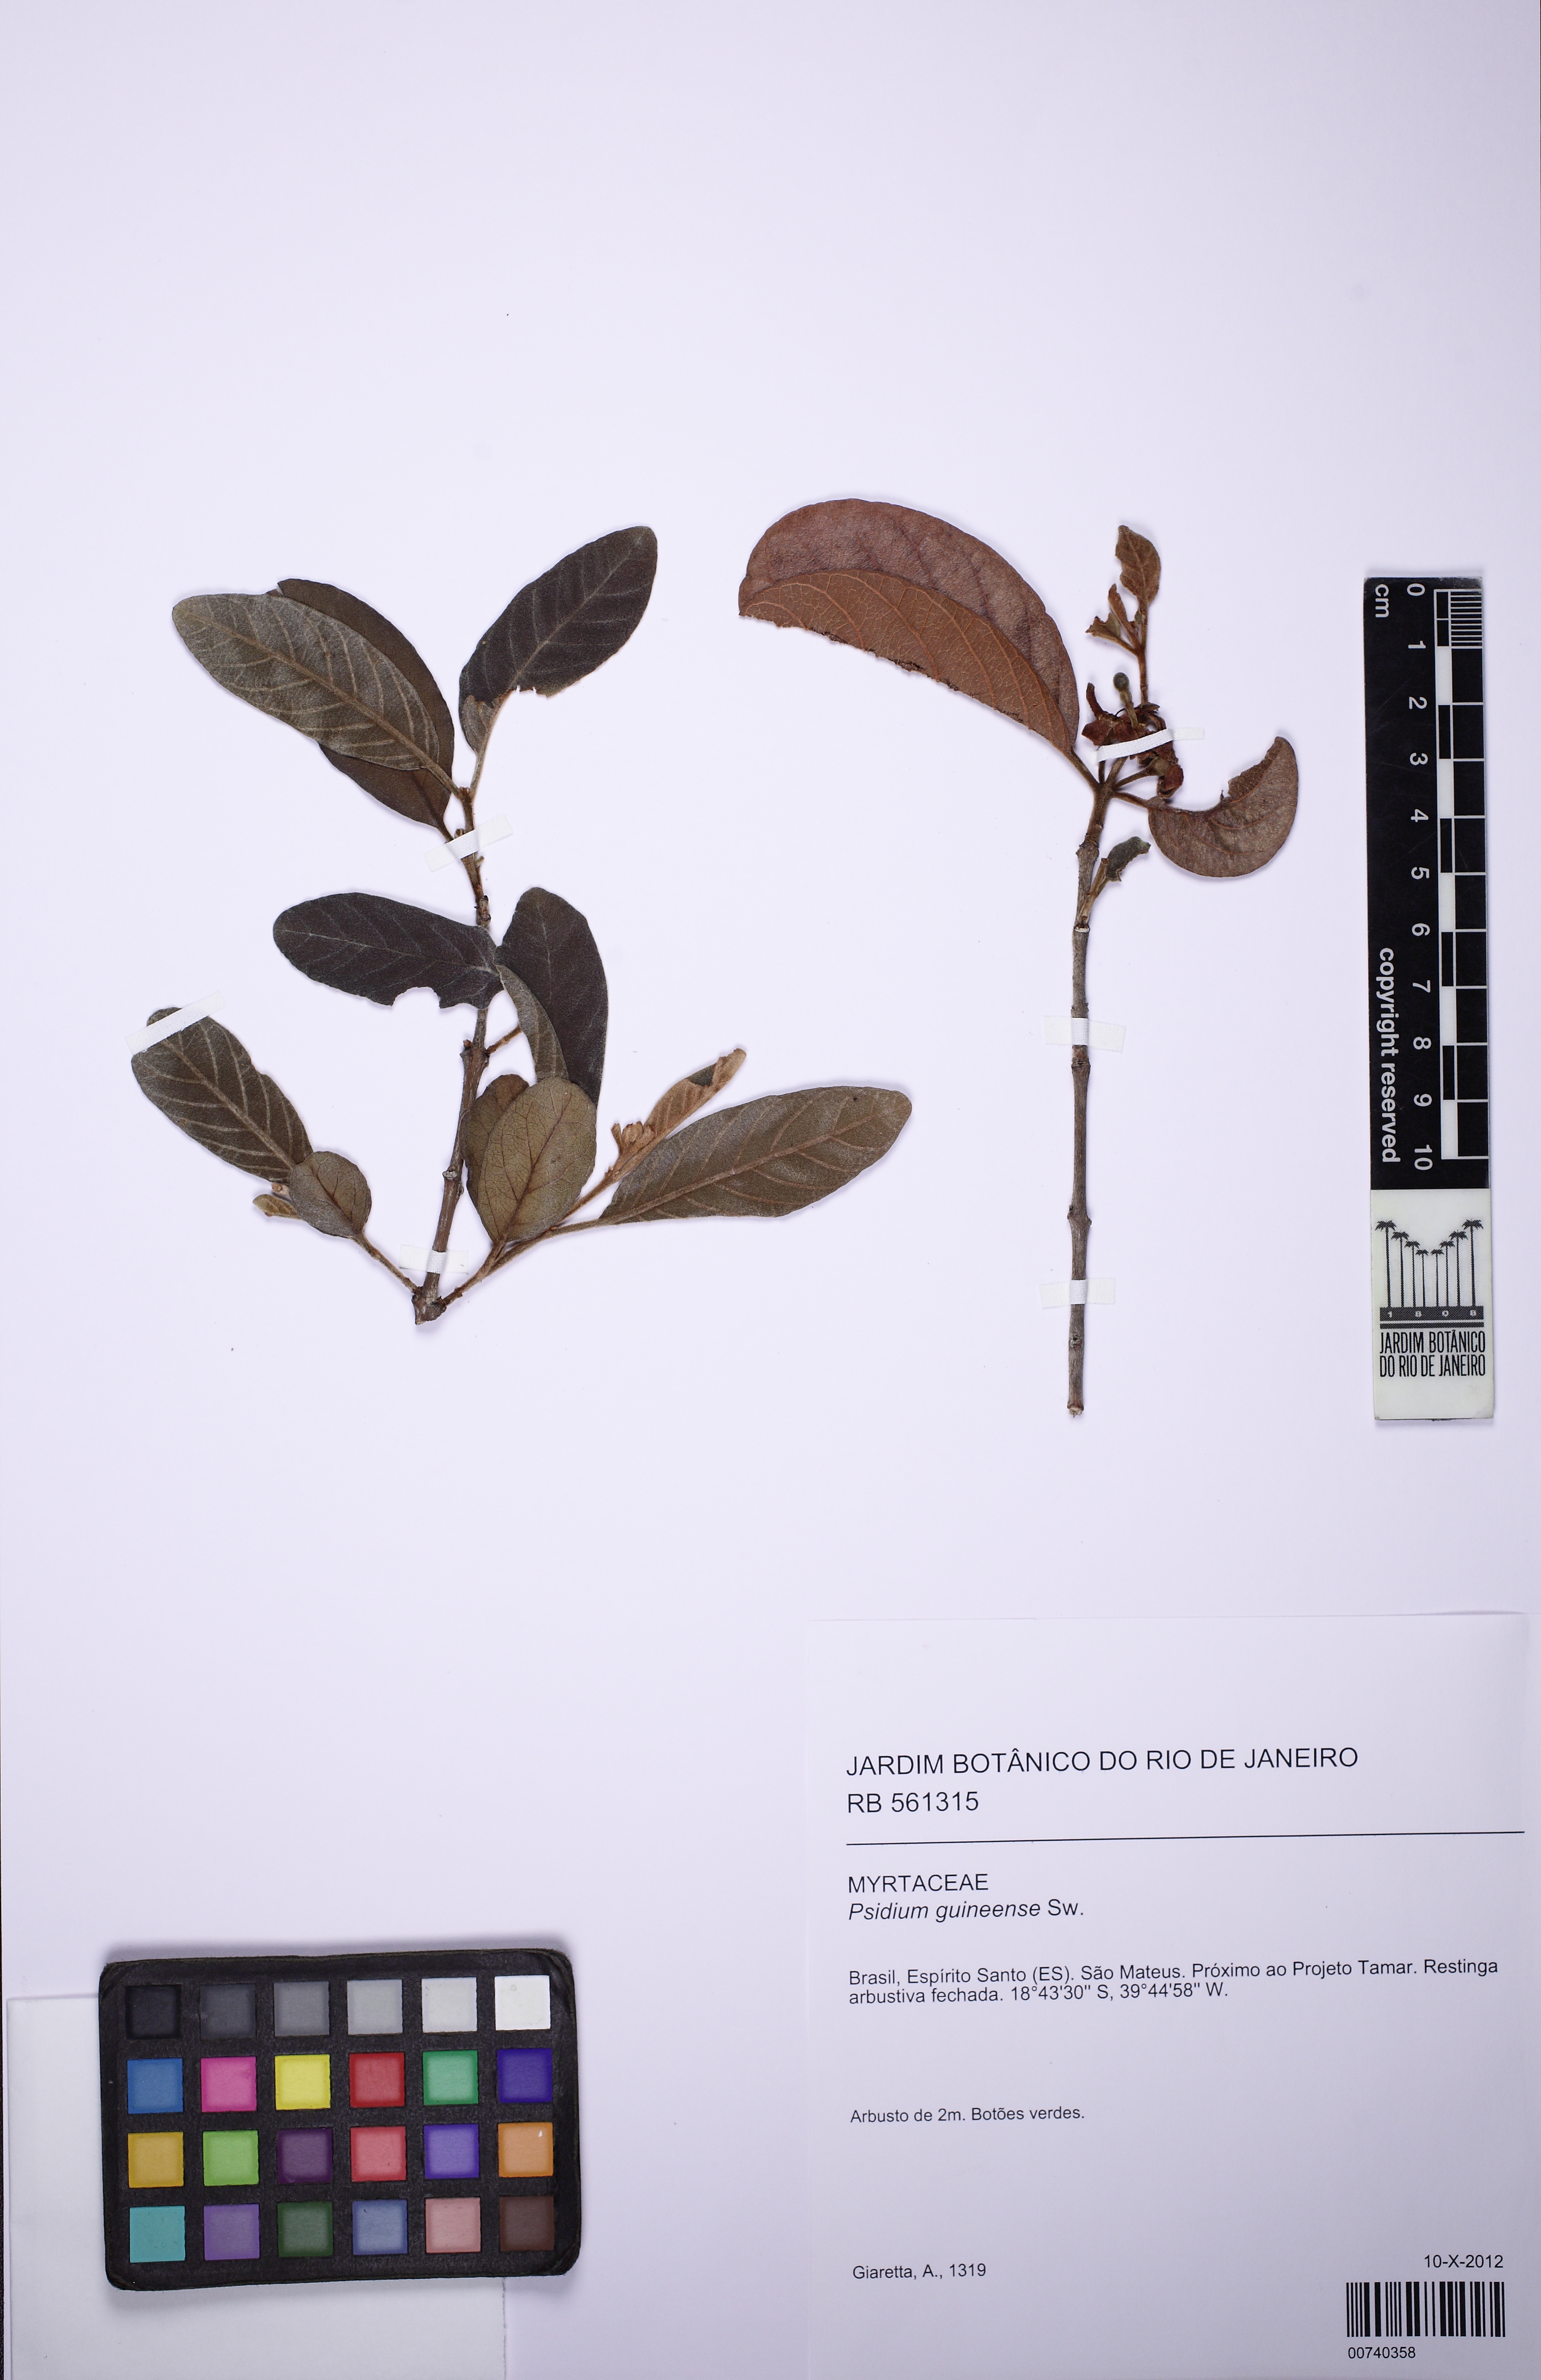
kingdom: Plantae
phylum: Tracheophyta
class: Magnoliopsida
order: Myrtales
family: Myrtaceae
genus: Psidium
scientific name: Psidium guineense
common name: Brazilian guava
